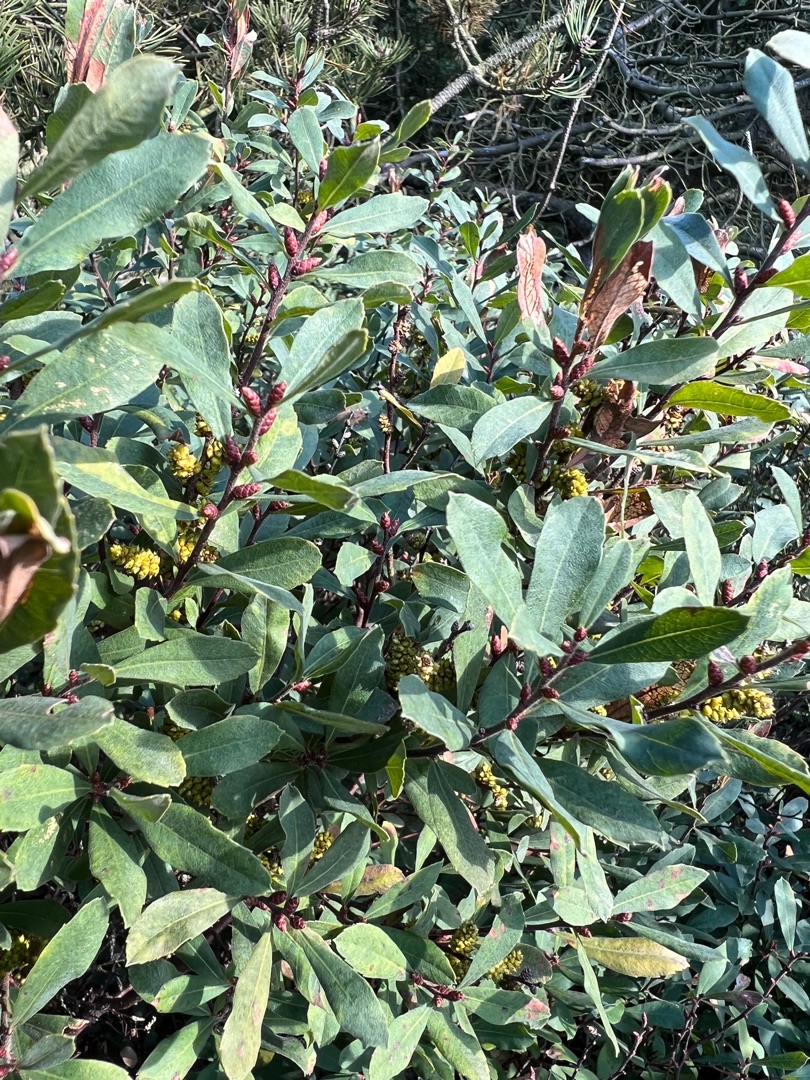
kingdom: Plantae
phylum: Tracheophyta
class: Magnoliopsida
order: Fagales
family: Myricaceae
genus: Myrica
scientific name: Myrica gale
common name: Pors
